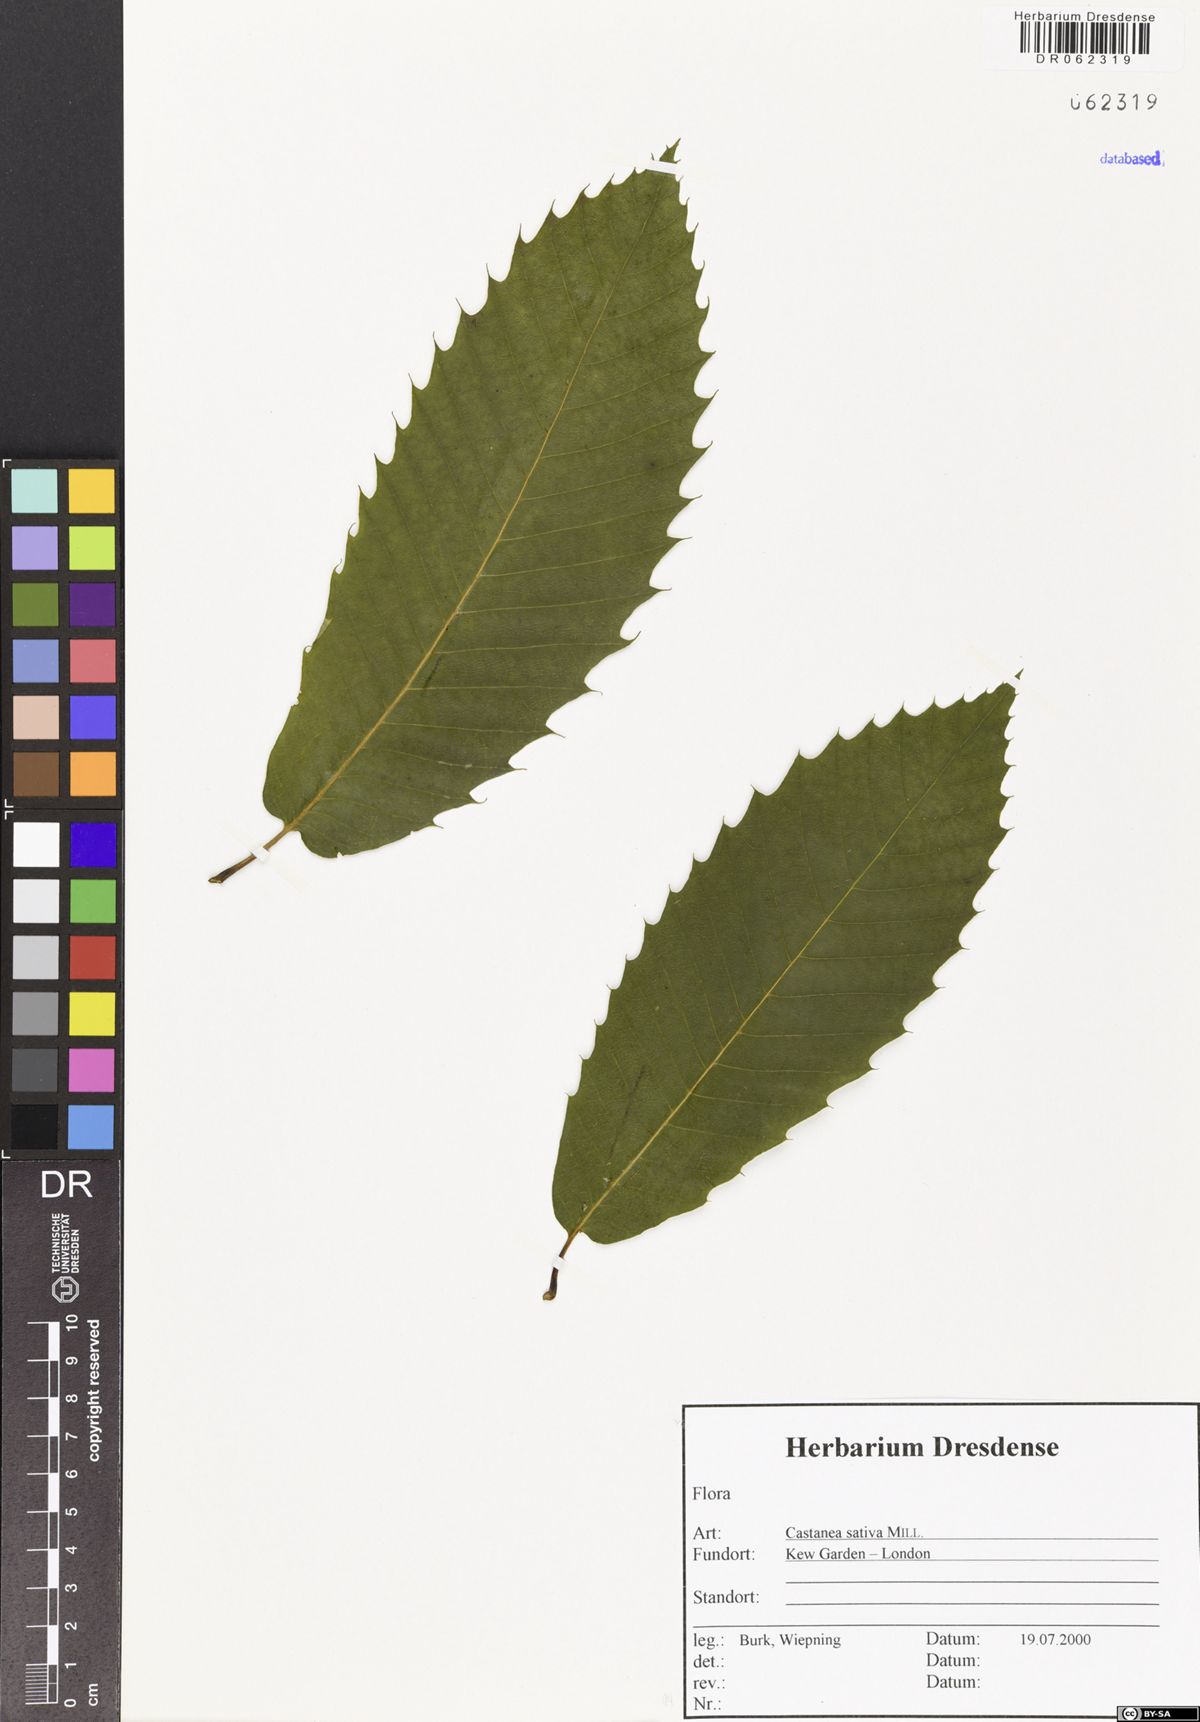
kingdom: Plantae
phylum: Tracheophyta
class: Magnoliopsida
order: Fagales
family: Fagaceae
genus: Castanea
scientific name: Castanea sativa
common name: Sweet chestnut
